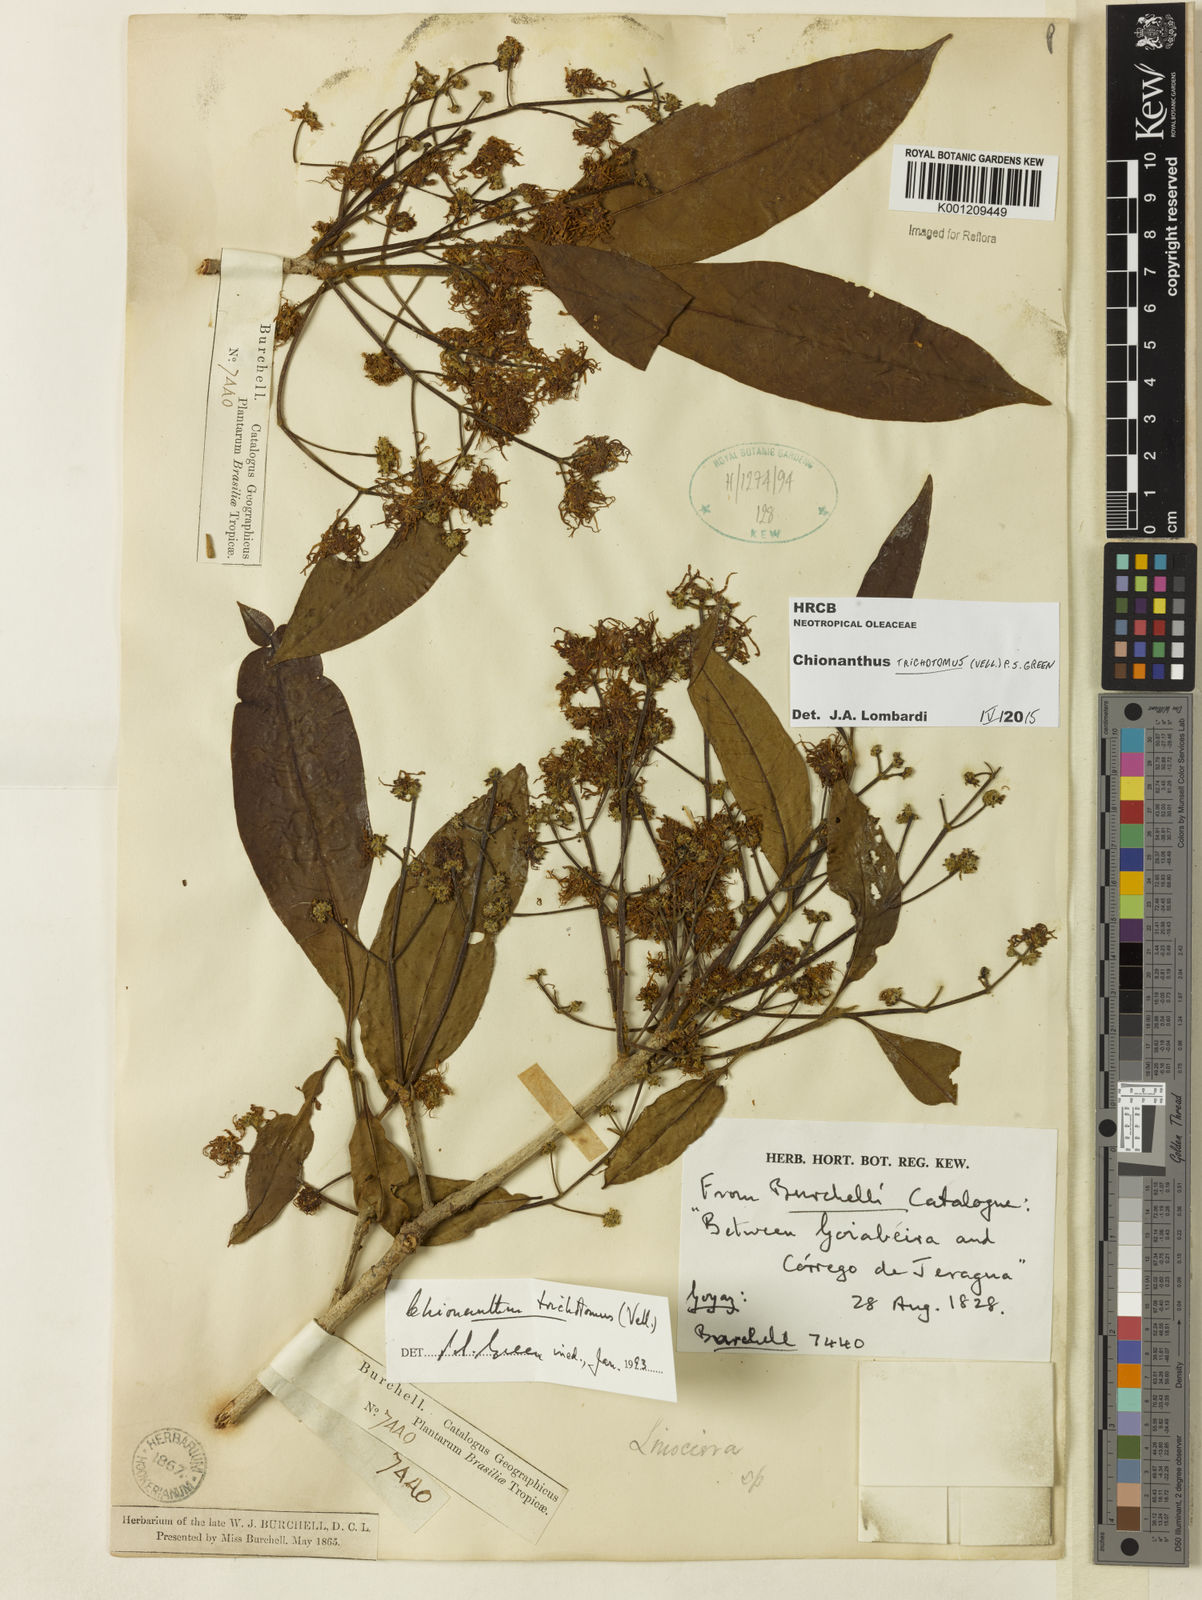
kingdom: Plantae
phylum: Tracheophyta
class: Magnoliopsida
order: Lamiales
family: Oleaceae
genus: Chionanthus
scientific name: Chionanthus trichotomus
